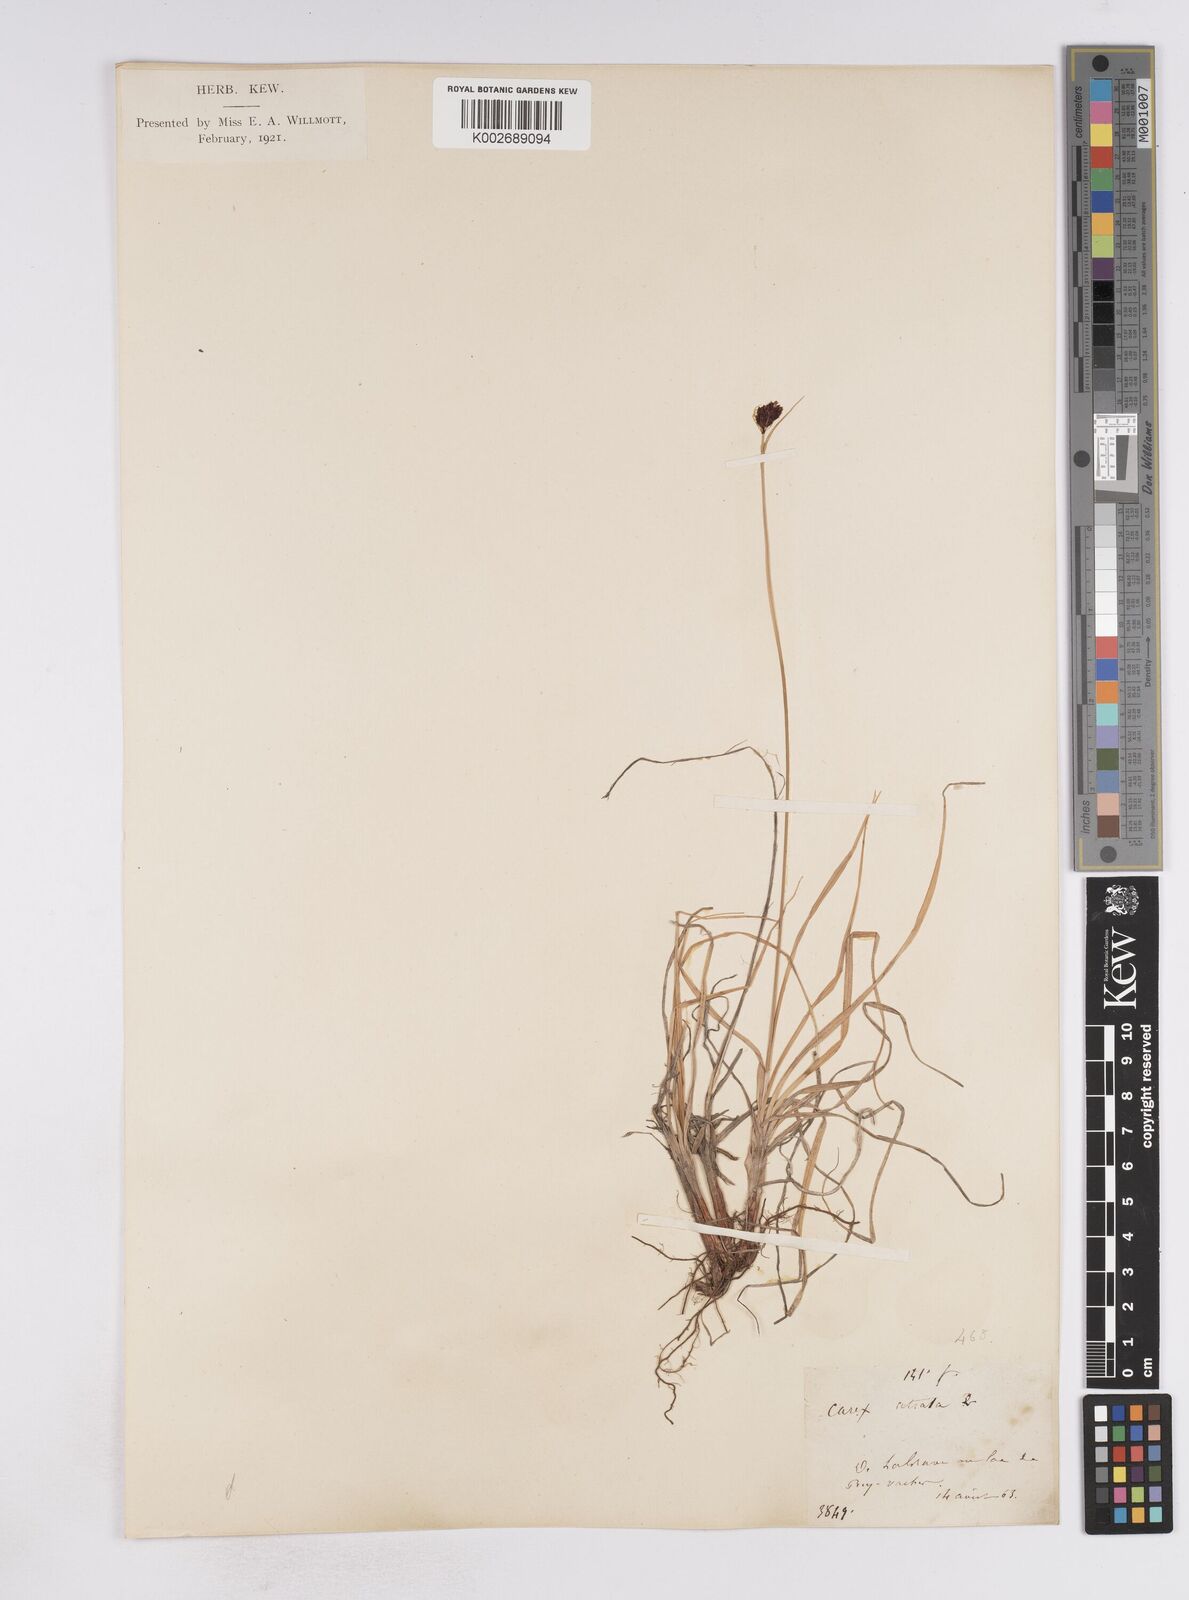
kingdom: Plantae
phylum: Tracheophyta
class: Liliopsida
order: Poales
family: Cyperaceae
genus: Carex
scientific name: Carex atrata
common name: Black alpine sedge
